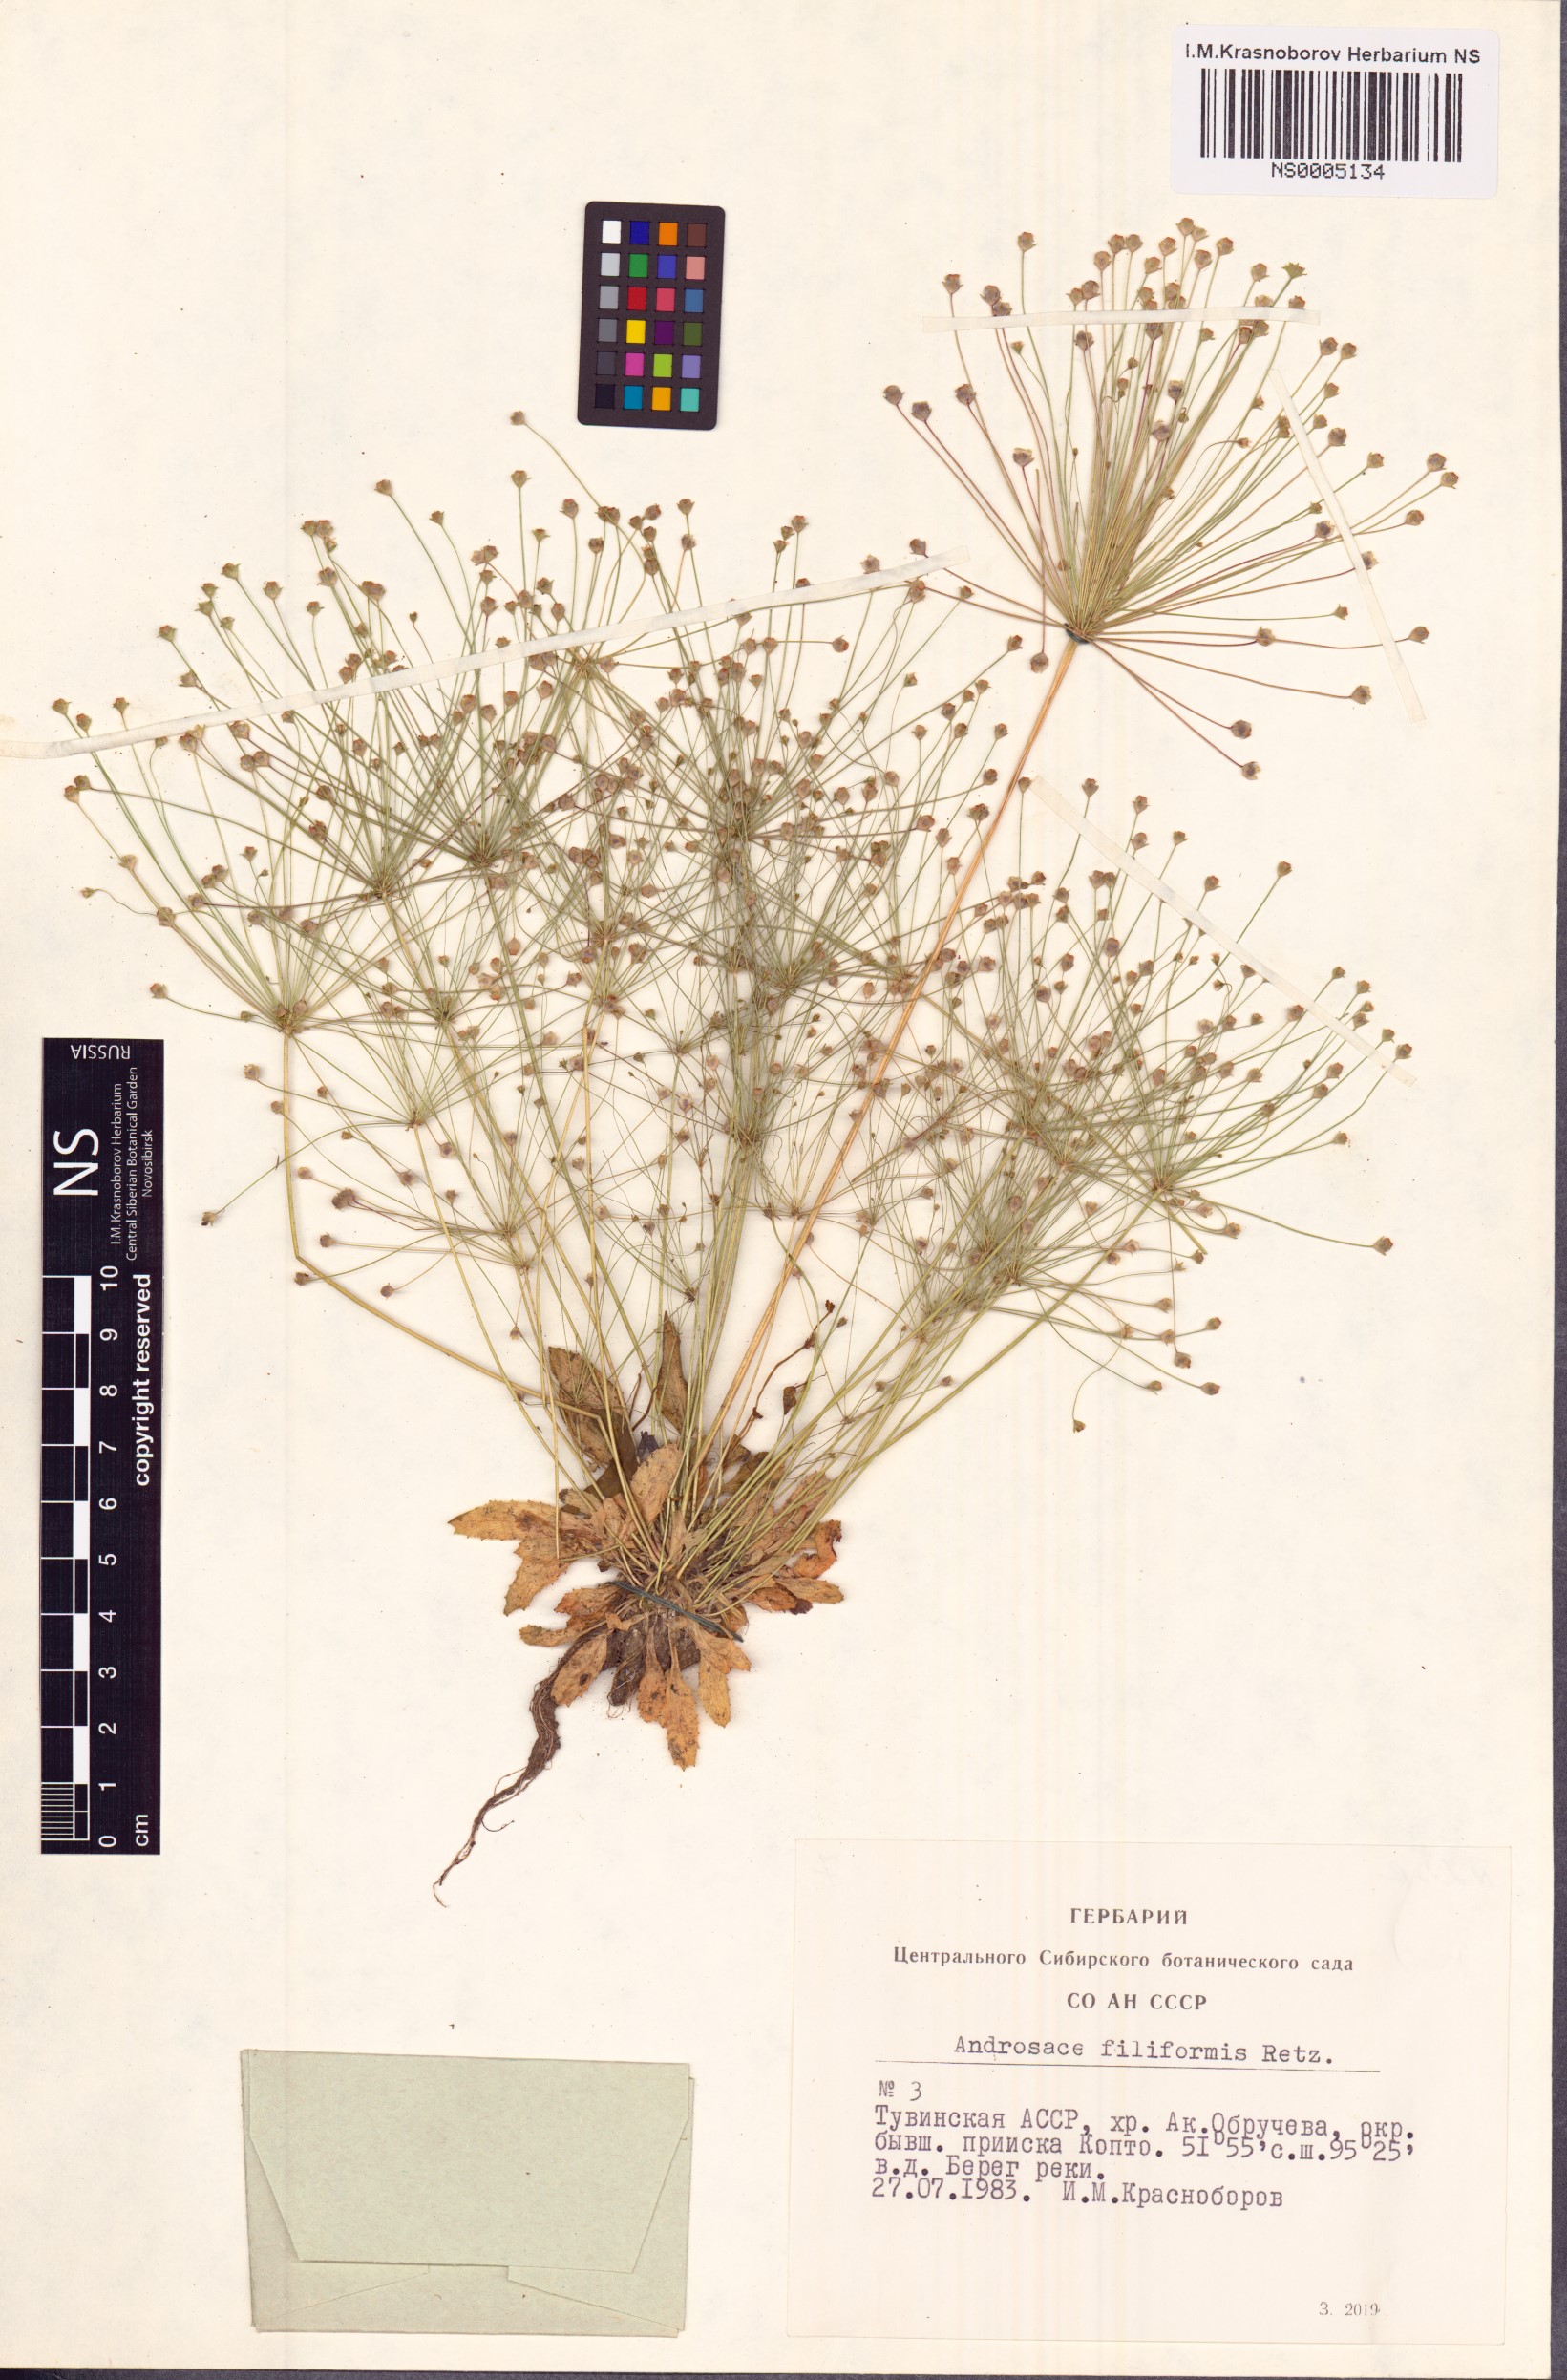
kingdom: Plantae
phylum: Tracheophyta
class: Magnoliopsida
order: Ericales
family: Primulaceae
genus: Androsace
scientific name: Androsace filiformis
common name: Filiform rock jasmine
